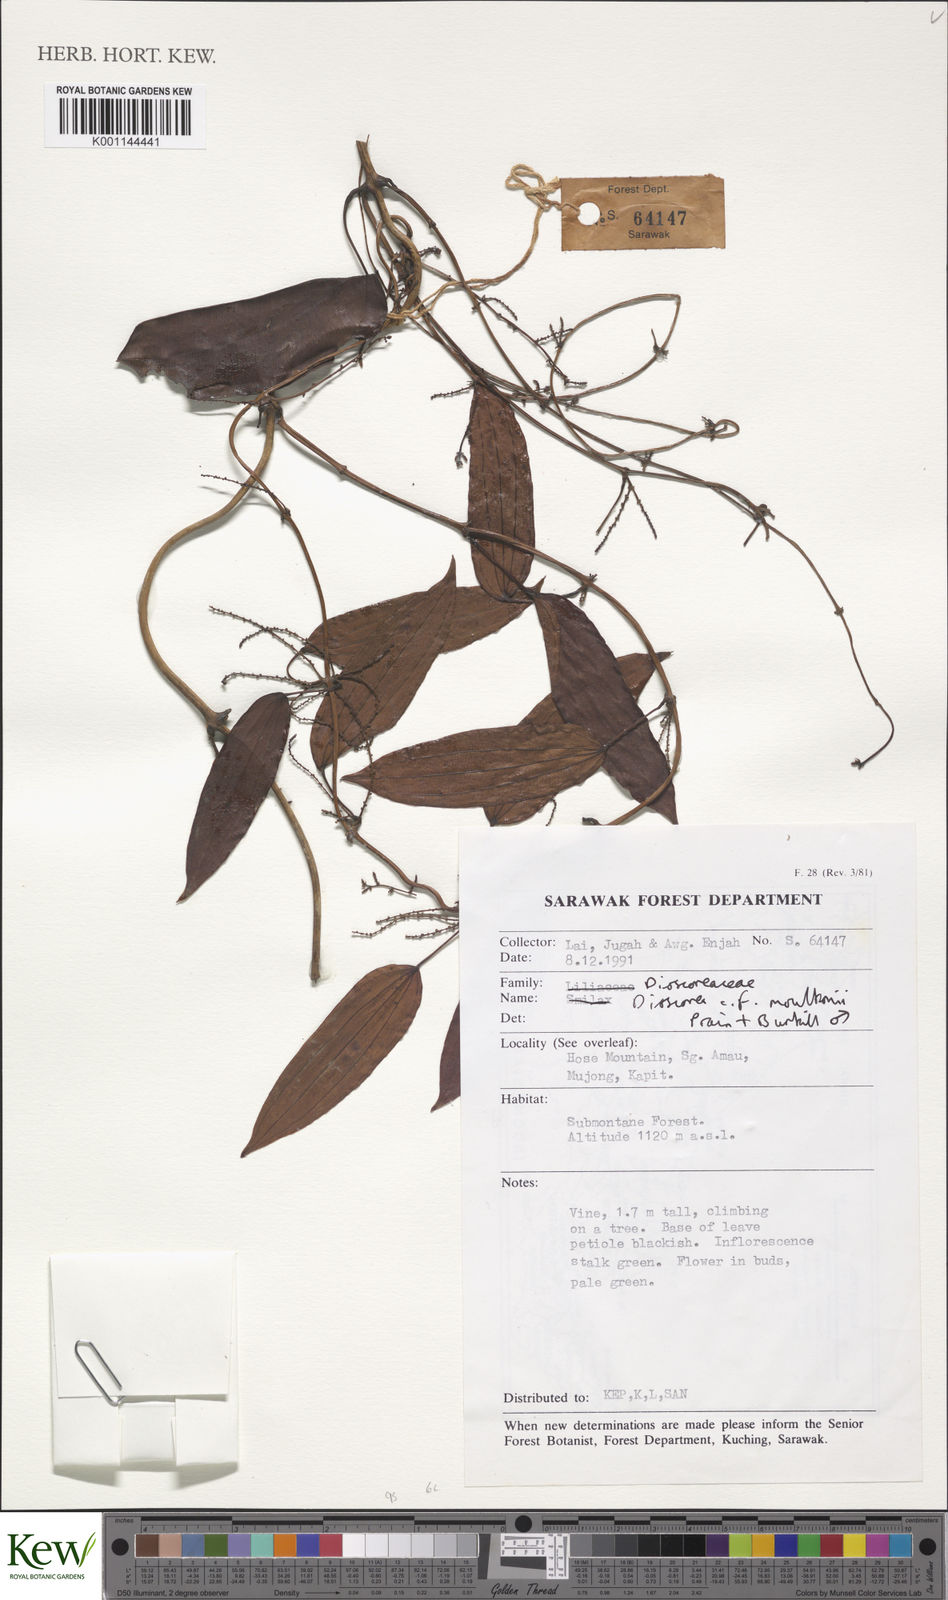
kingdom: Plantae
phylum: Tracheophyta
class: Liliopsida
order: Dioscoreales
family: Dioscoreaceae
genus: Dioscorea
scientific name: Dioscorea moultonii
